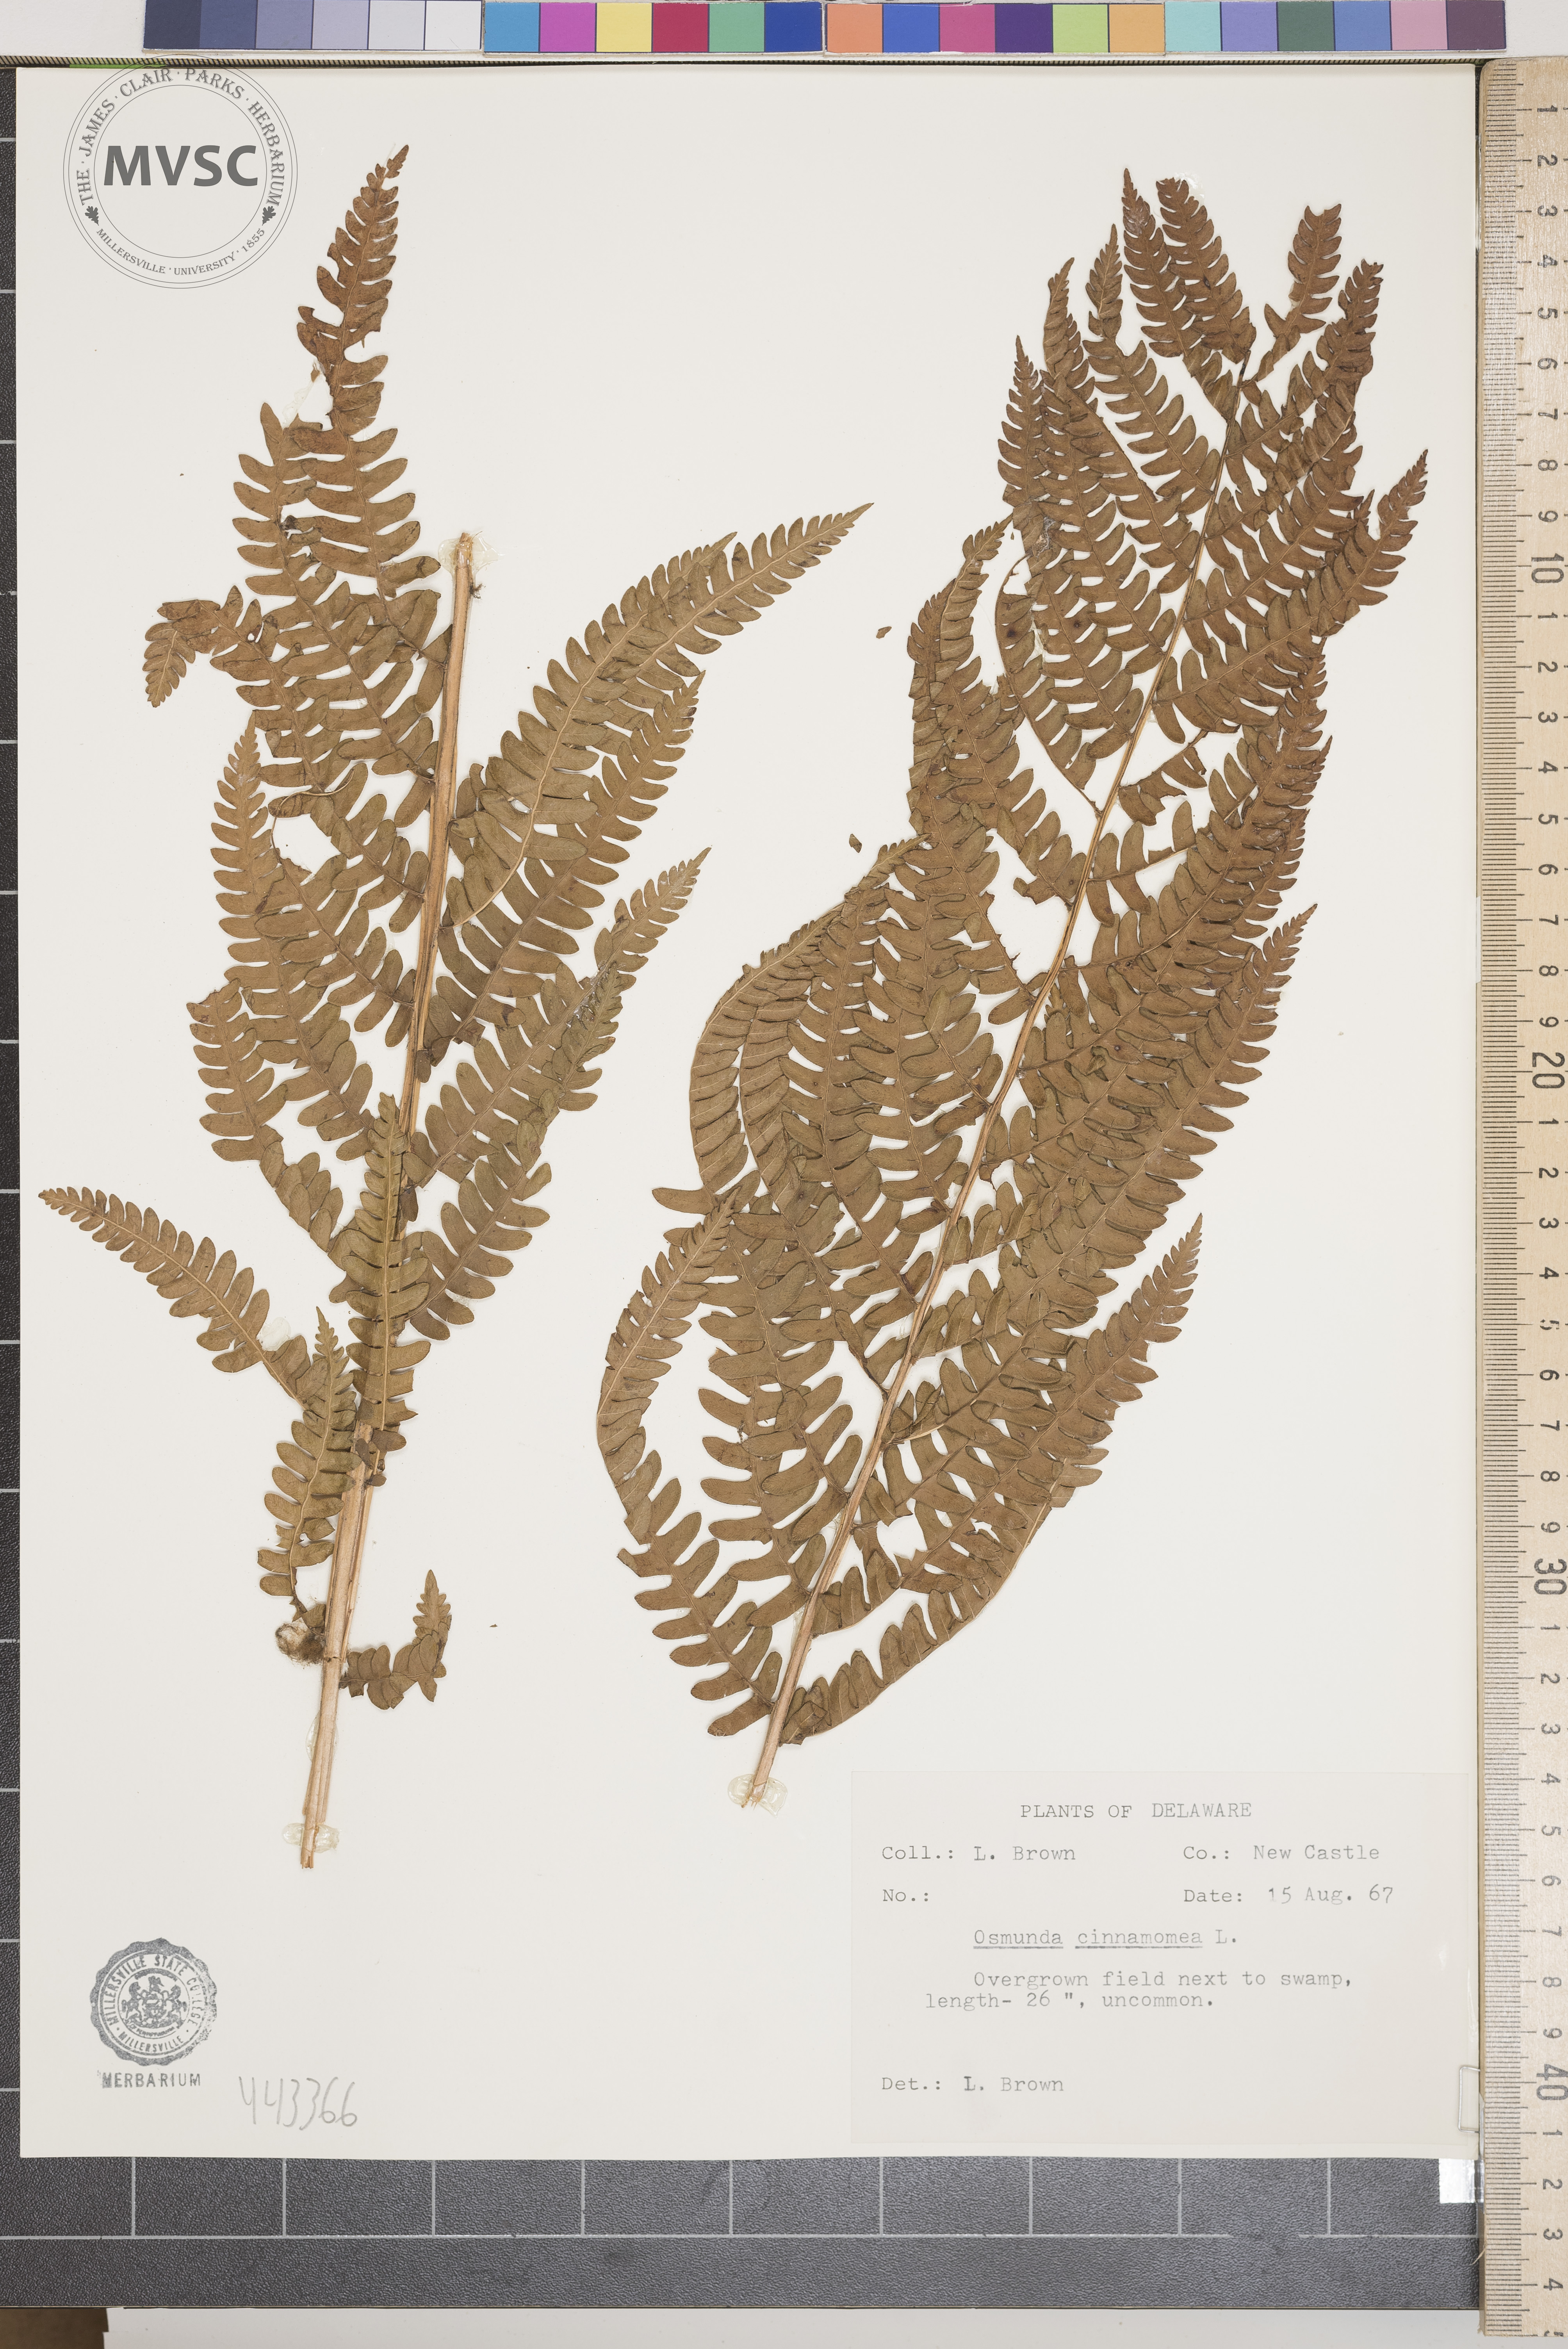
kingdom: Plantae
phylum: Tracheophyta
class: Polypodiopsida
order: Osmundales
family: Osmundaceae
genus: Osmundastrum
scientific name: Osmundastrum cinnamomeum
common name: Cinnamon fern
